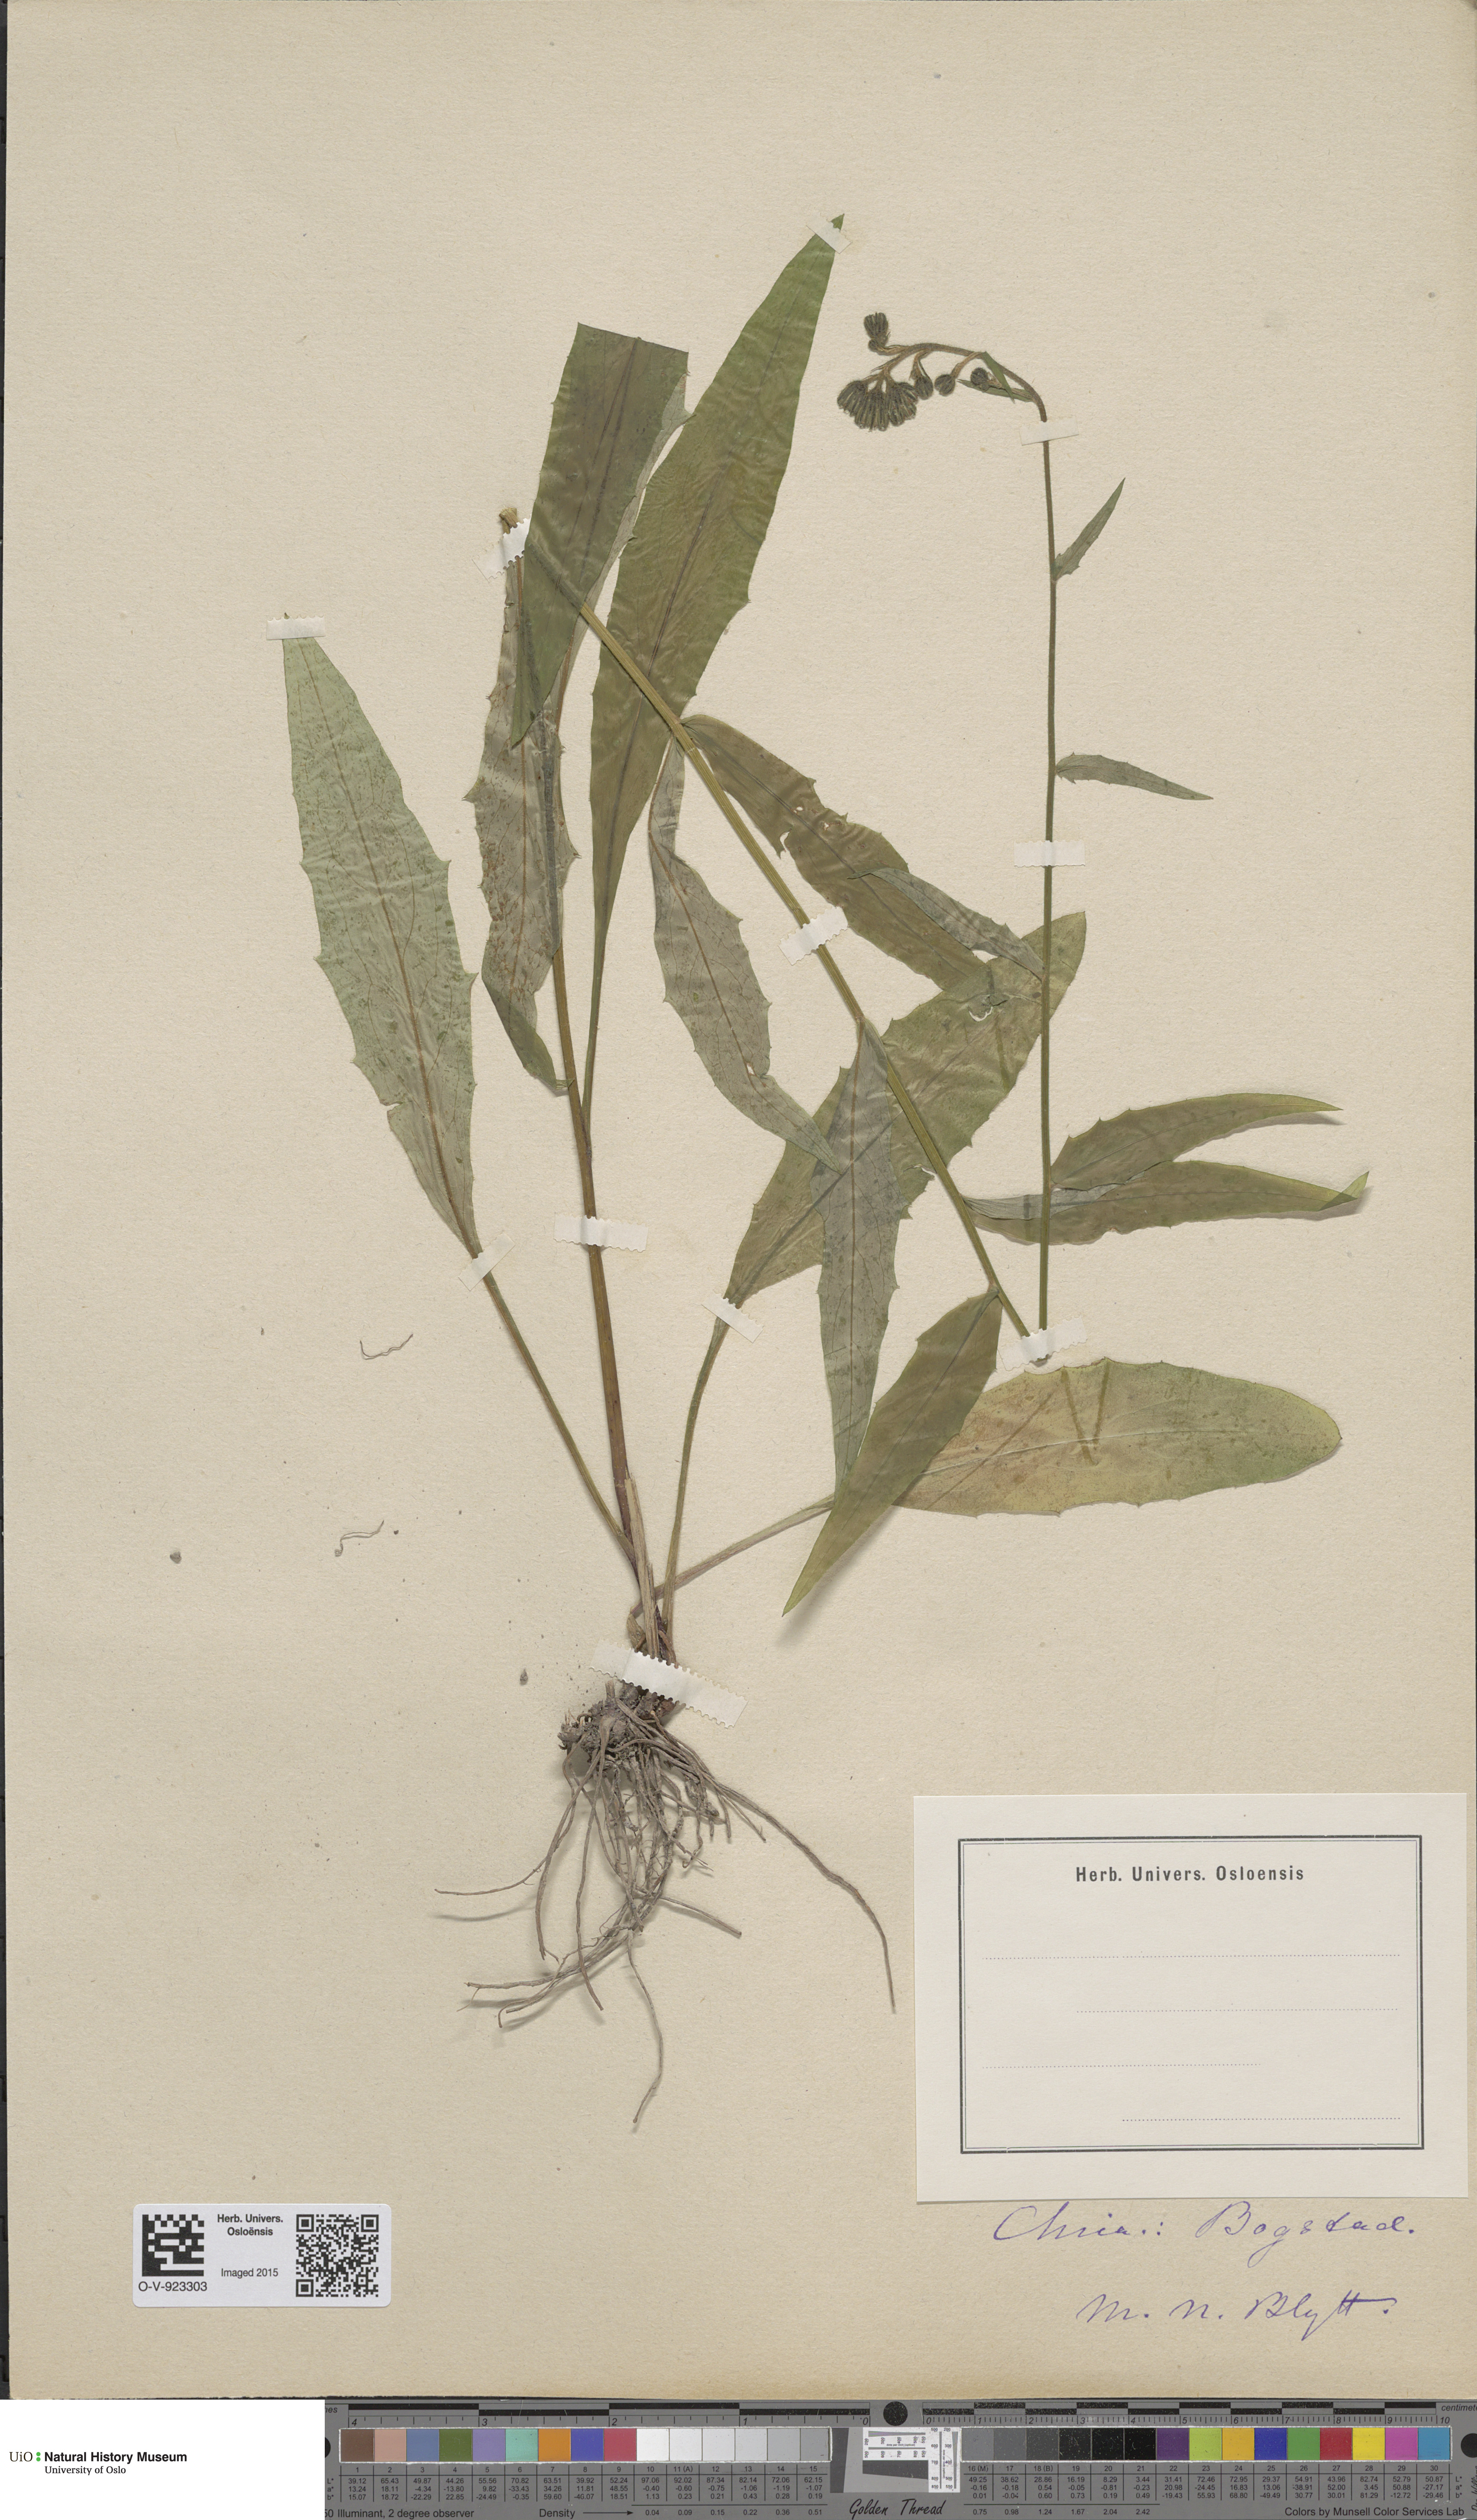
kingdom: Plantae
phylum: Tracheophyta
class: Magnoliopsida
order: Asterales
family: Asteraceae
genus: Hieracium
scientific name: Hieracium
